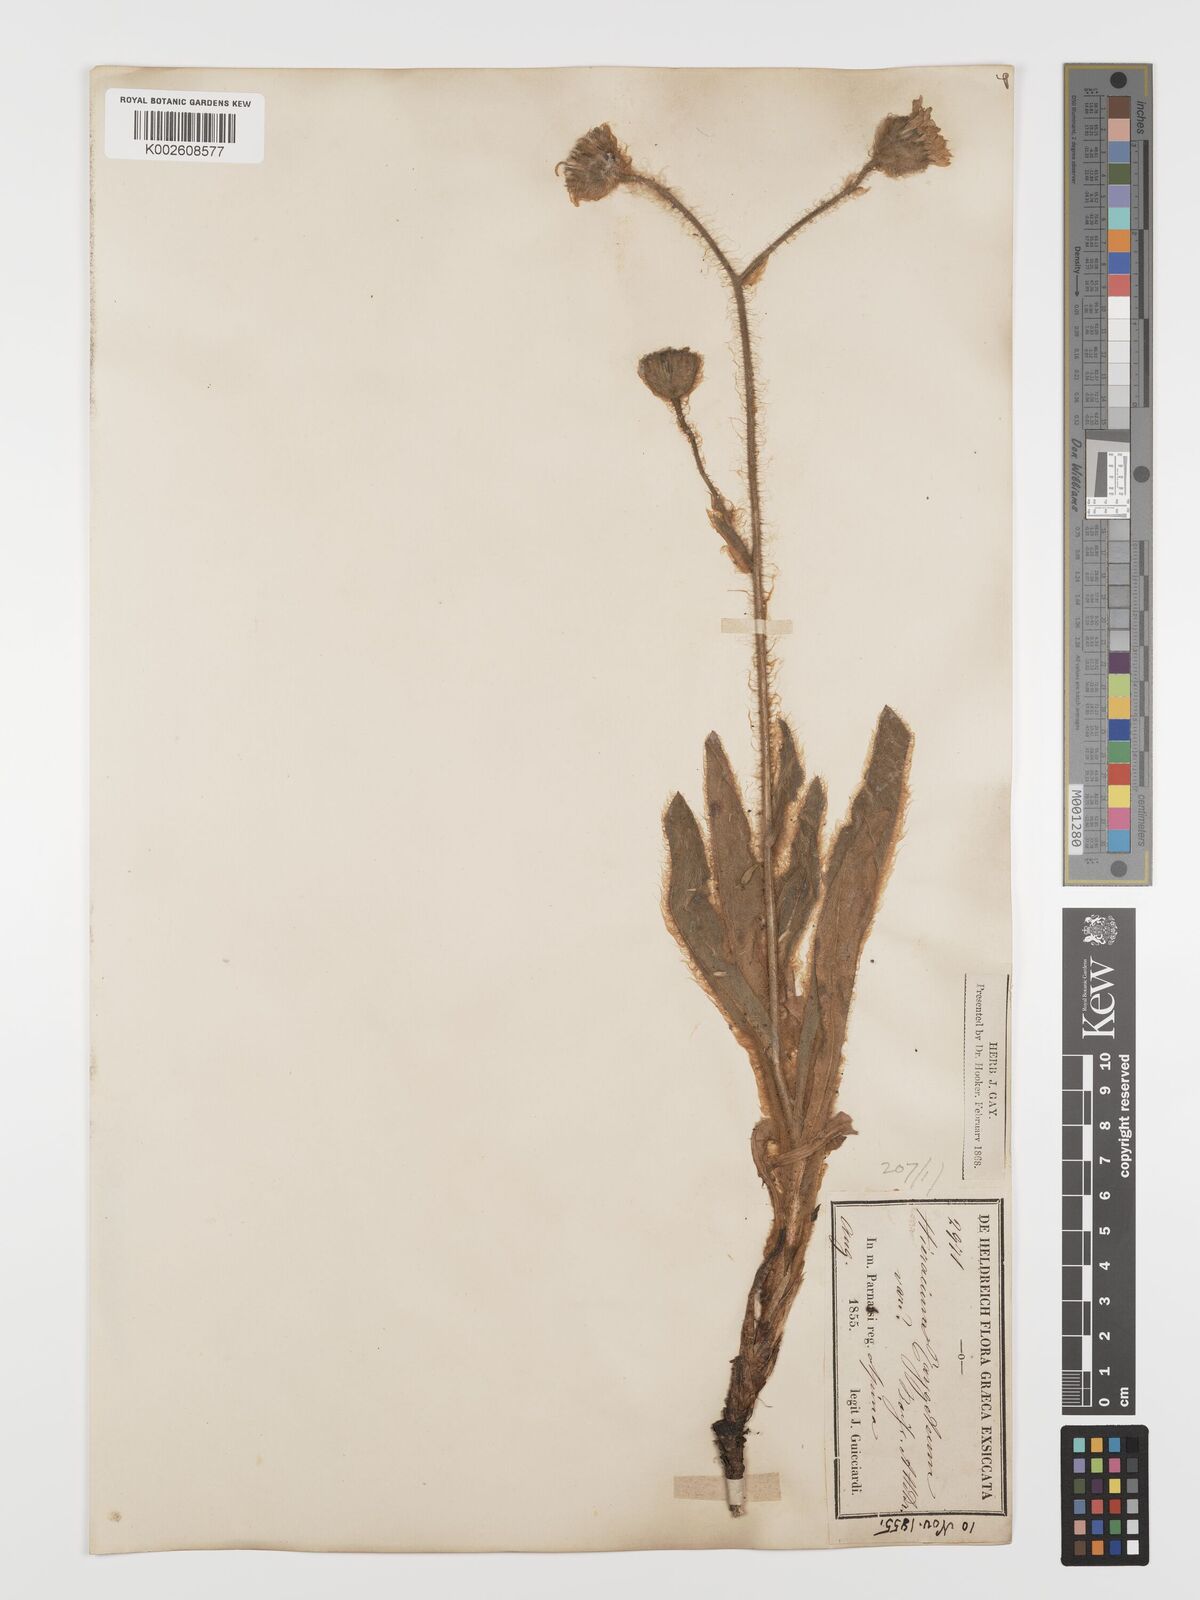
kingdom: Plantae
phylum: Tracheophyta
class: Magnoliopsida
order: Asterales
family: Asteraceae
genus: Hieracium
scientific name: Hieracium pannosum
